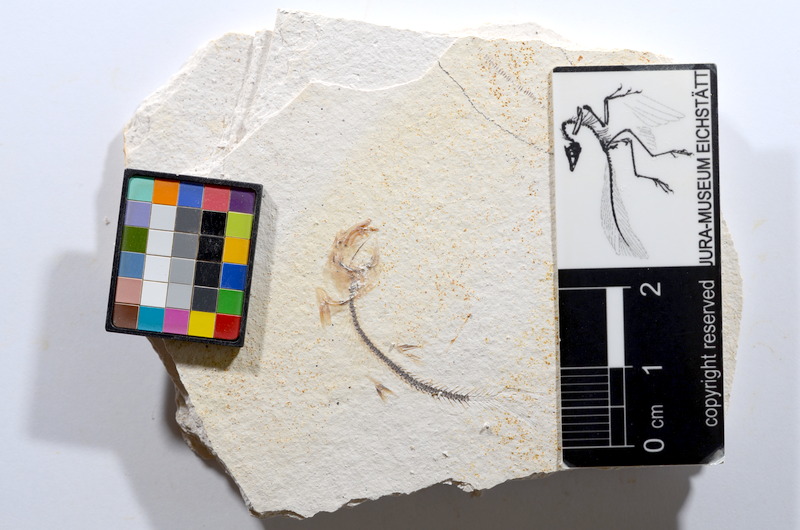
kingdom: Animalia
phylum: Chordata
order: Salmoniformes
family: Orthogonikleithridae
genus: Orthogonikleithrus
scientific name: Orthogonikleithrus hoelli
